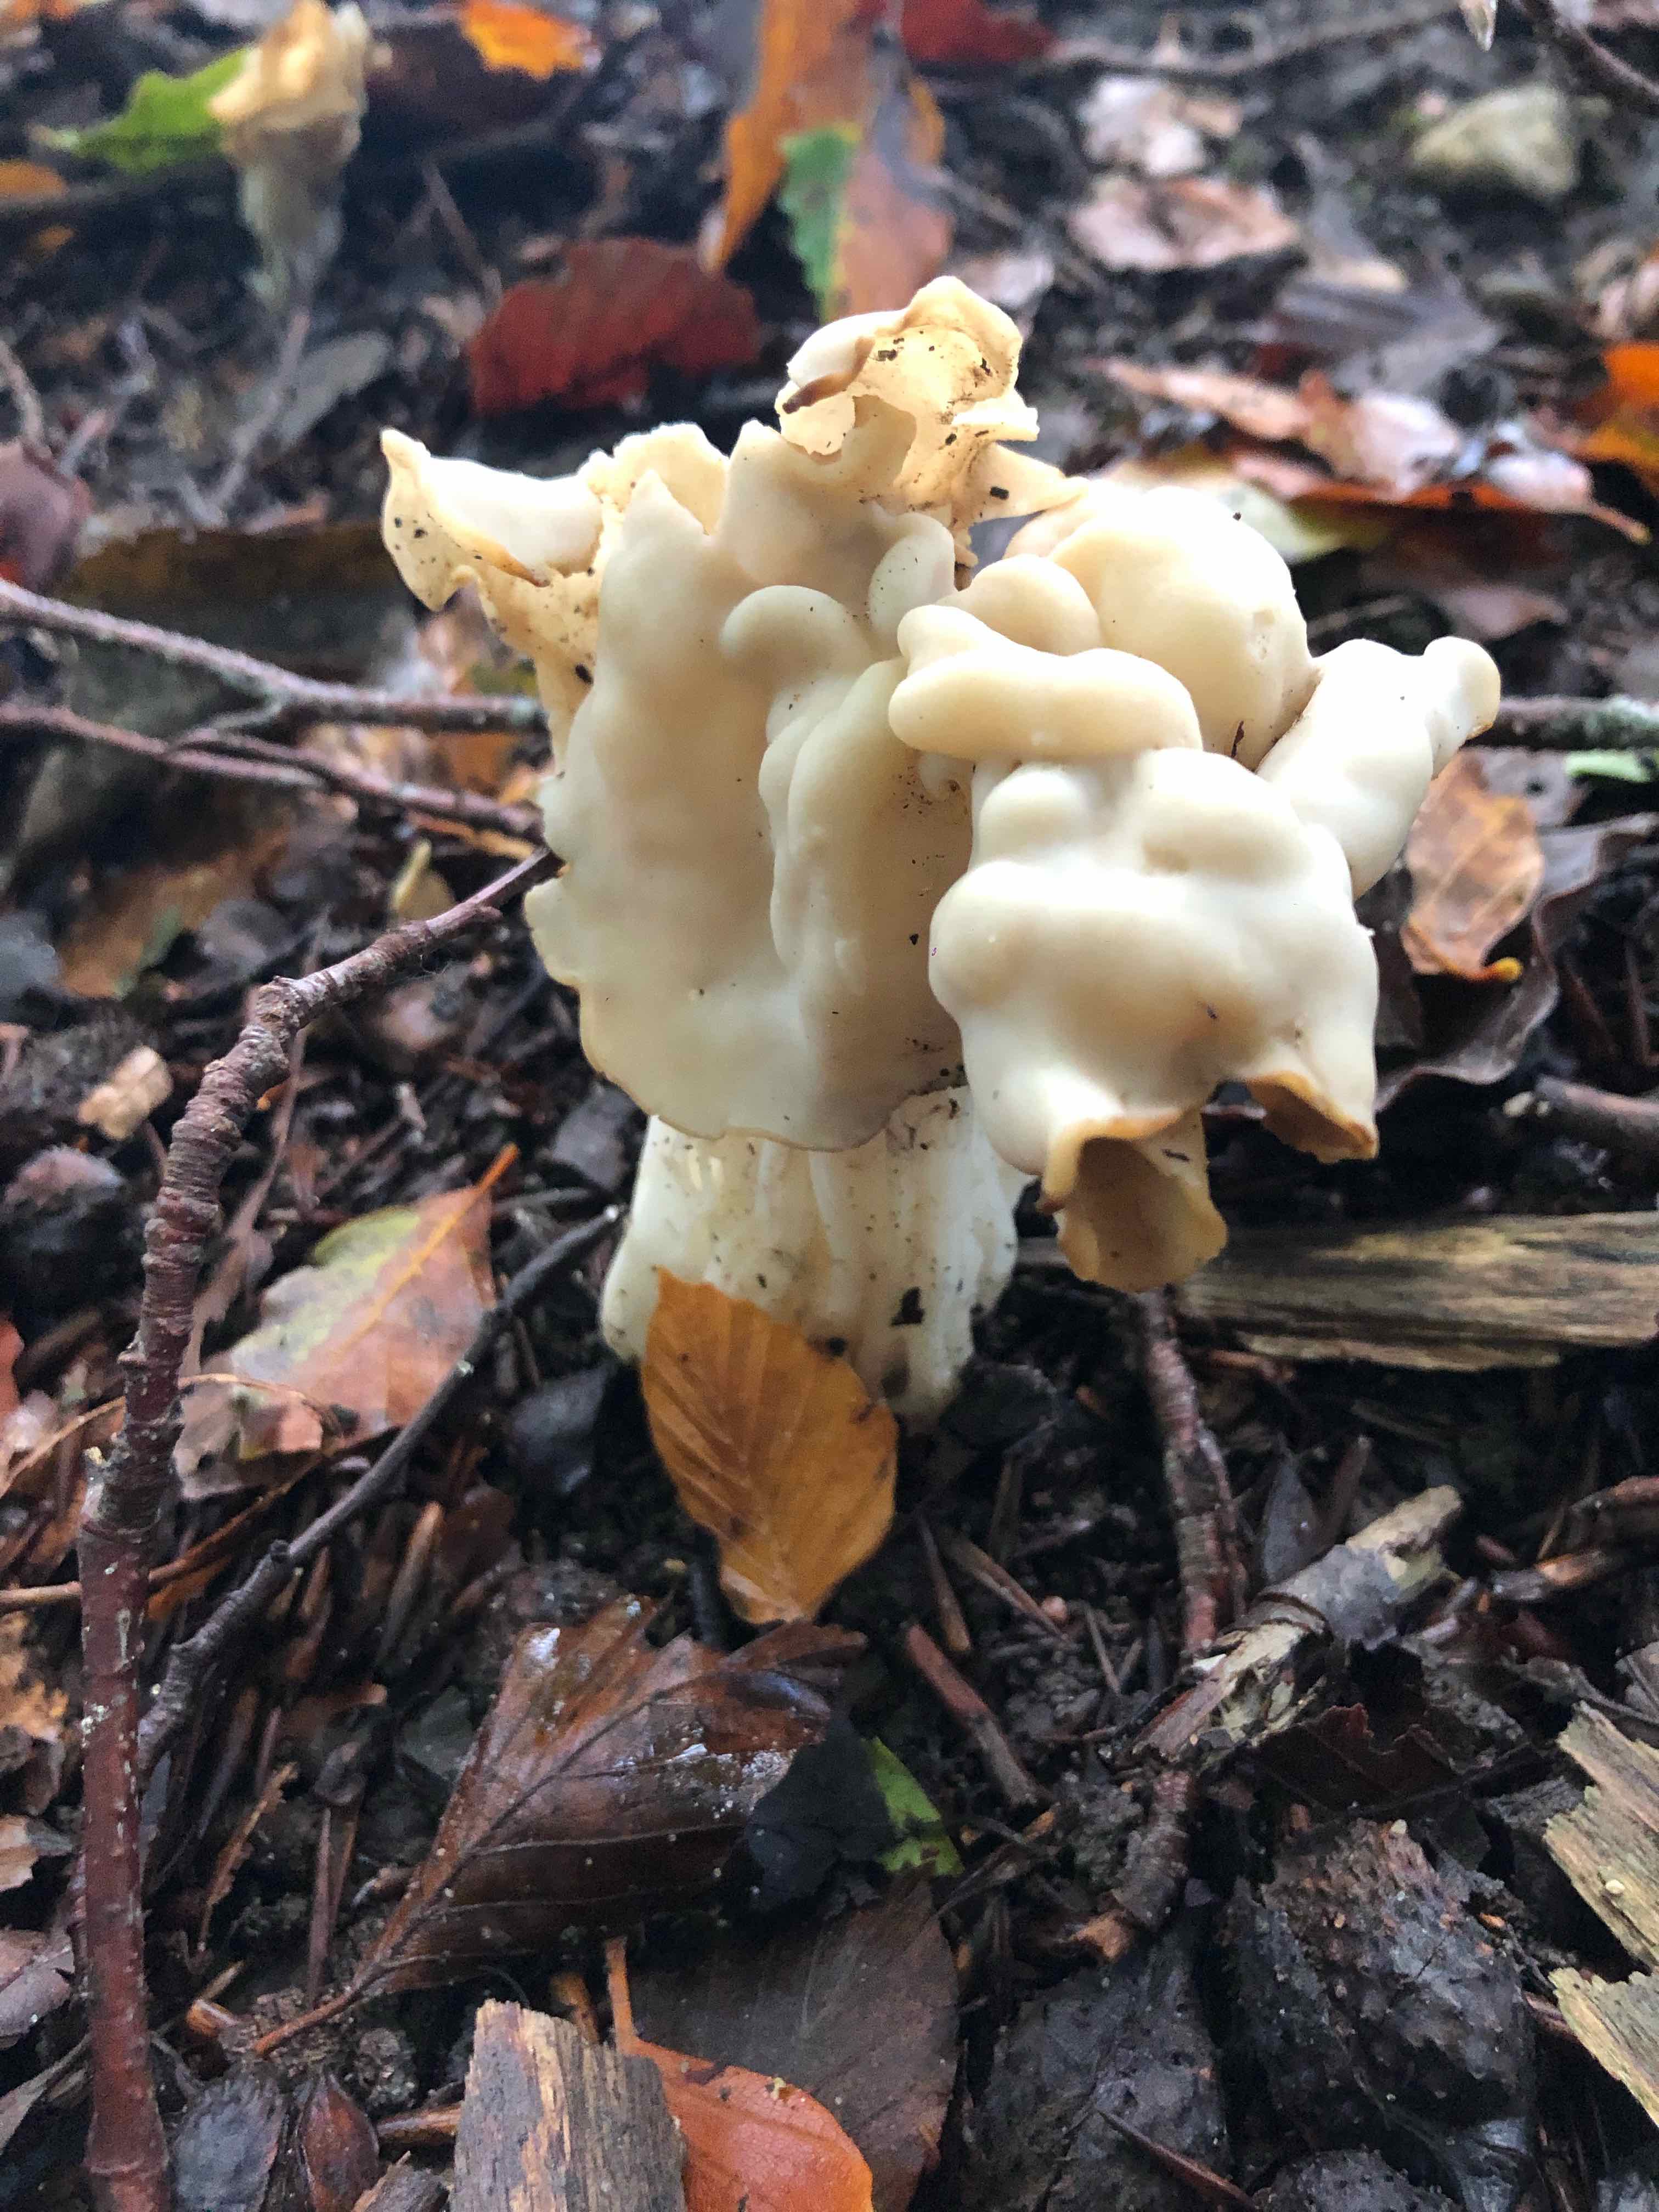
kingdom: Fungi
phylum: Ascomycota
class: Pezizomycetes
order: Pezizales
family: Helvellaceae
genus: Helvella
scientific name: Helvella crispa
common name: kruset foldhat
